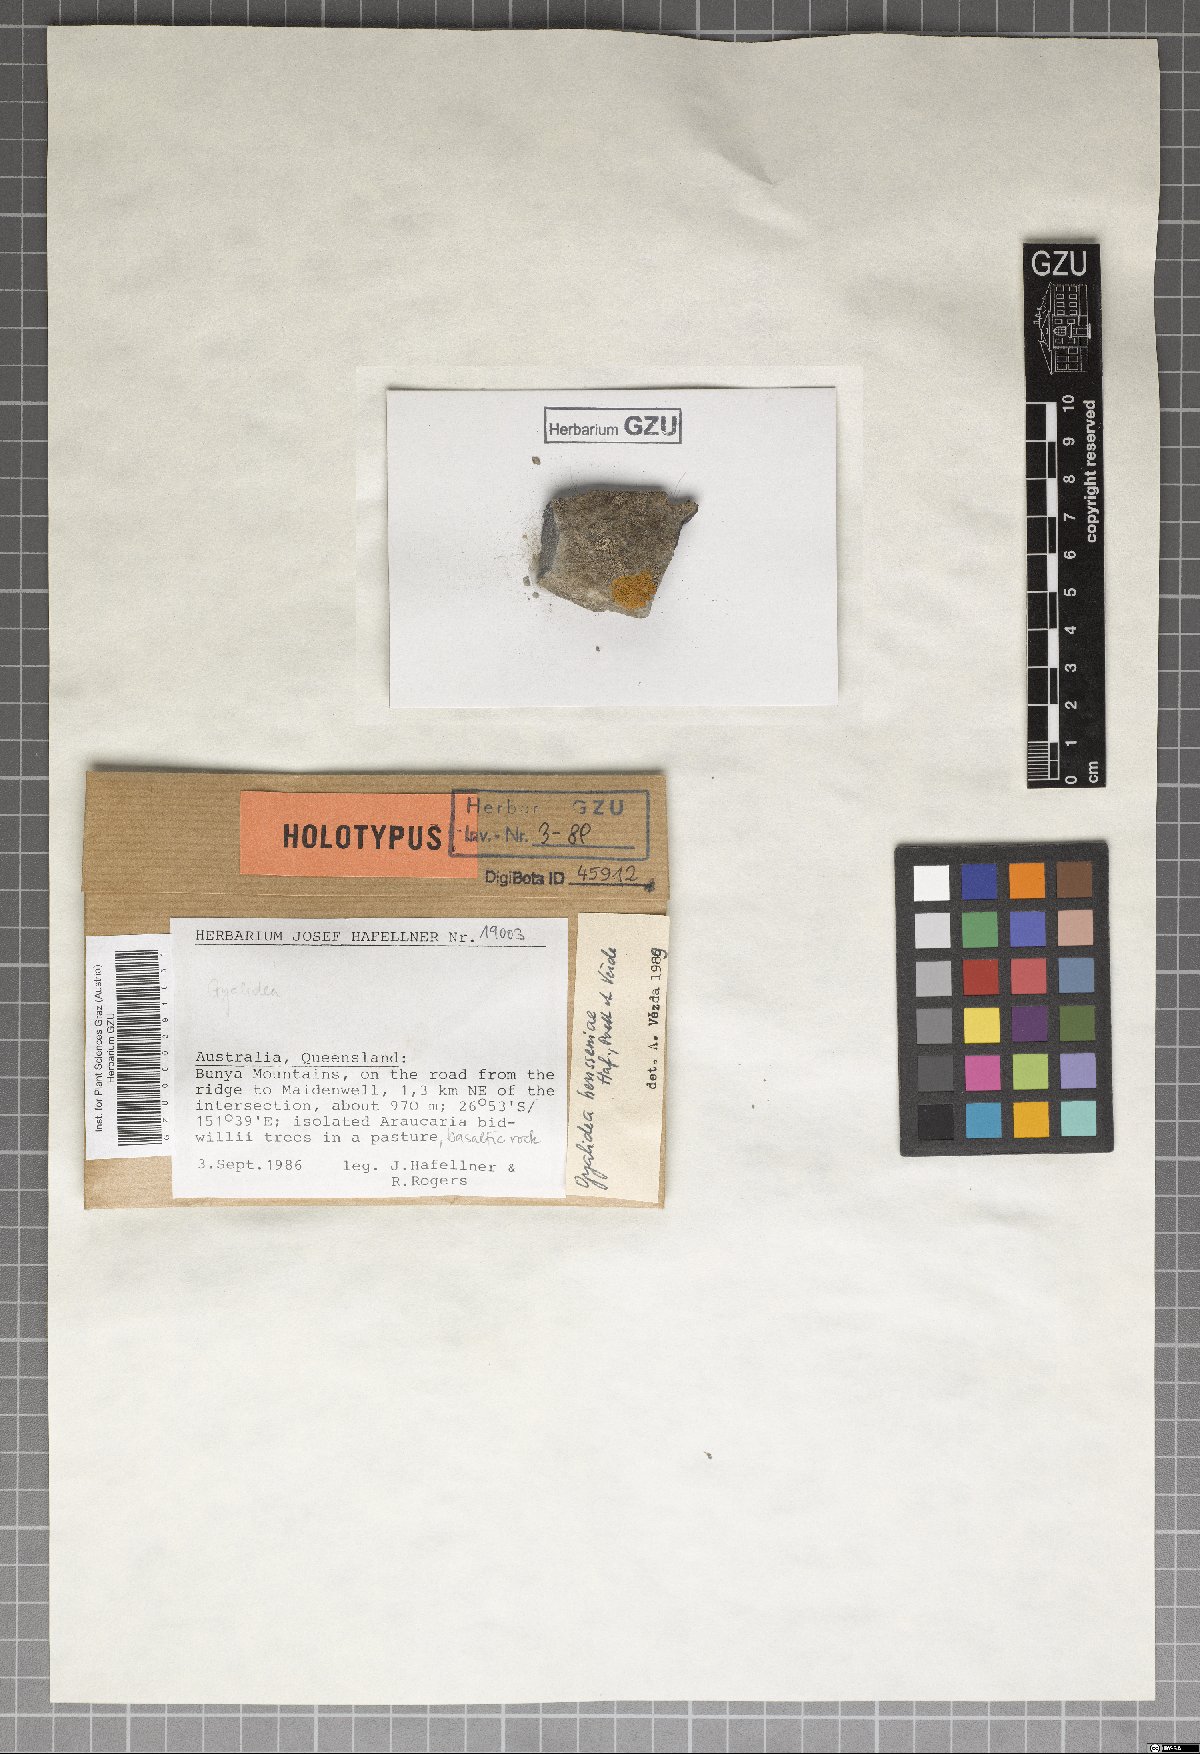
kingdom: Fungi
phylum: Ascomycota
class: Lecanoromycetes
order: Ostropales
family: Gomphillaceae
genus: Gyalidea
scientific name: Gyalidea hensseniae
